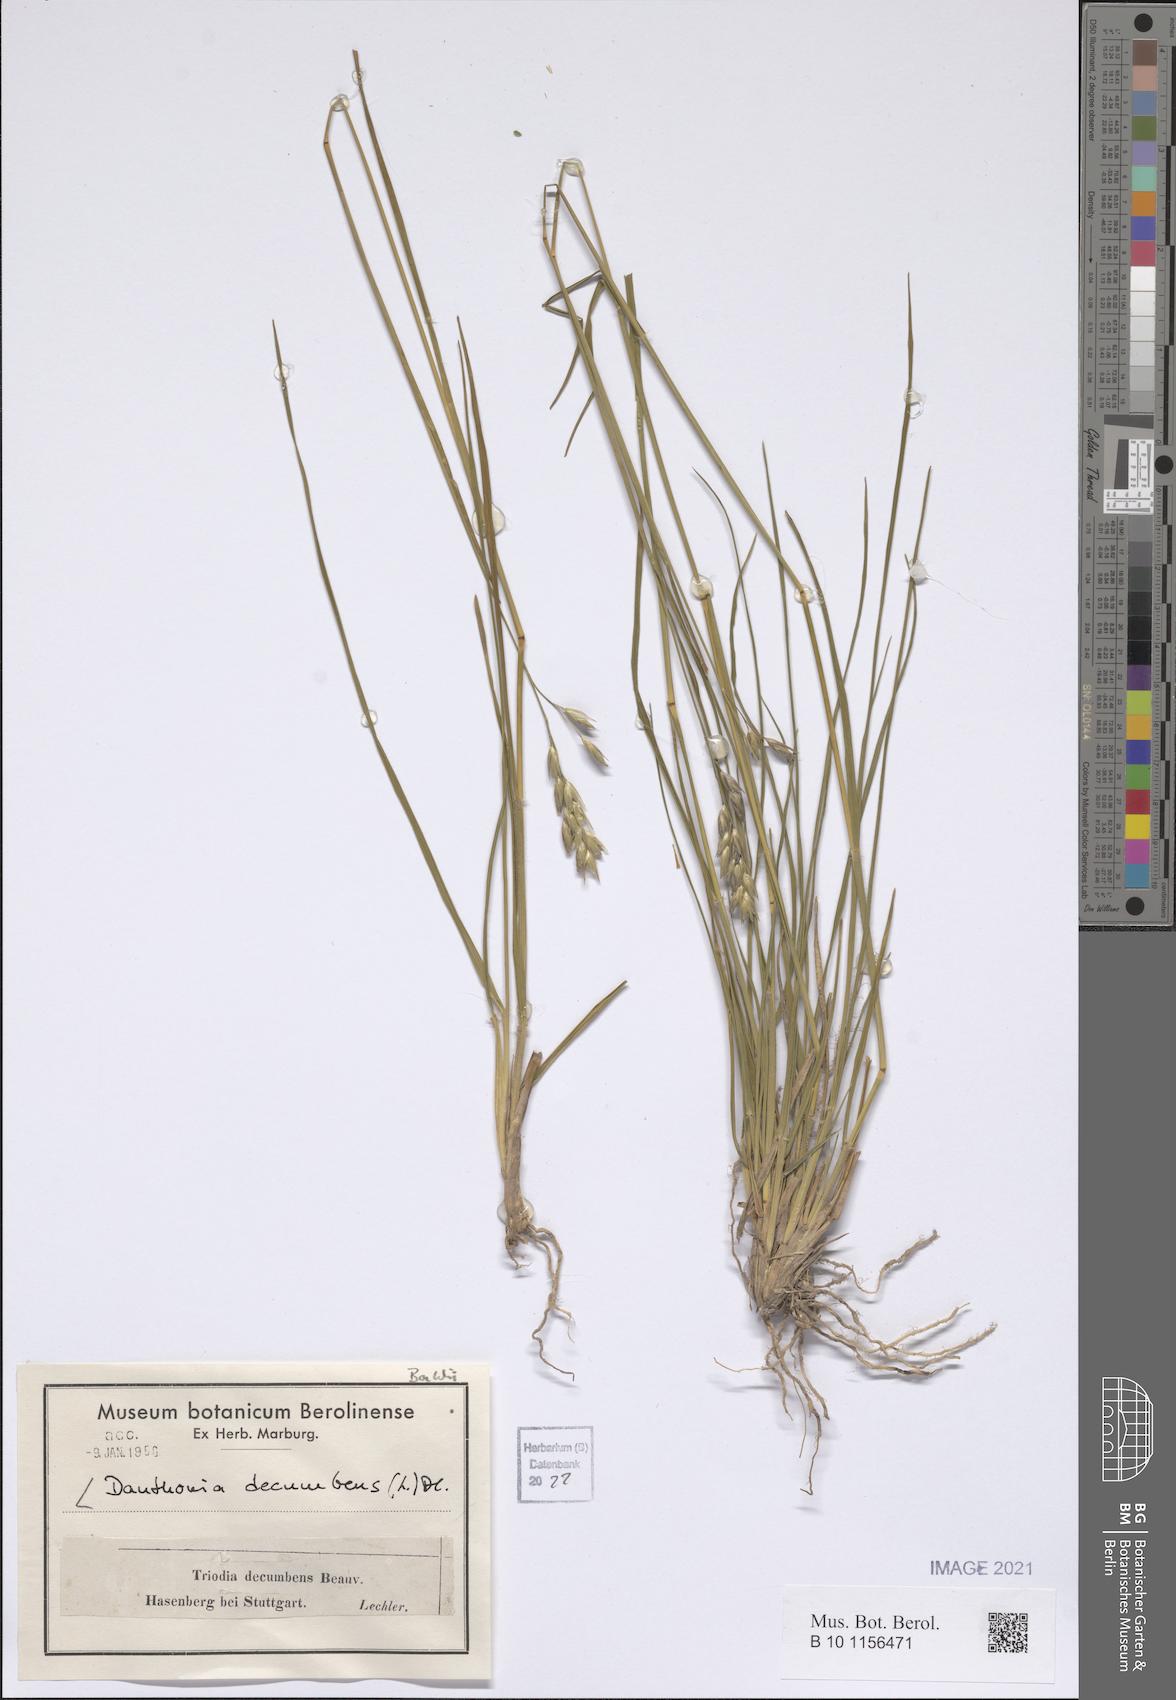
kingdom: Plantae
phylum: Tracheophyta
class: Liliopsida
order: Poales
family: Poaceae
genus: Danthonia
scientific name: Danthonia decumbens
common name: Common heathgrass
